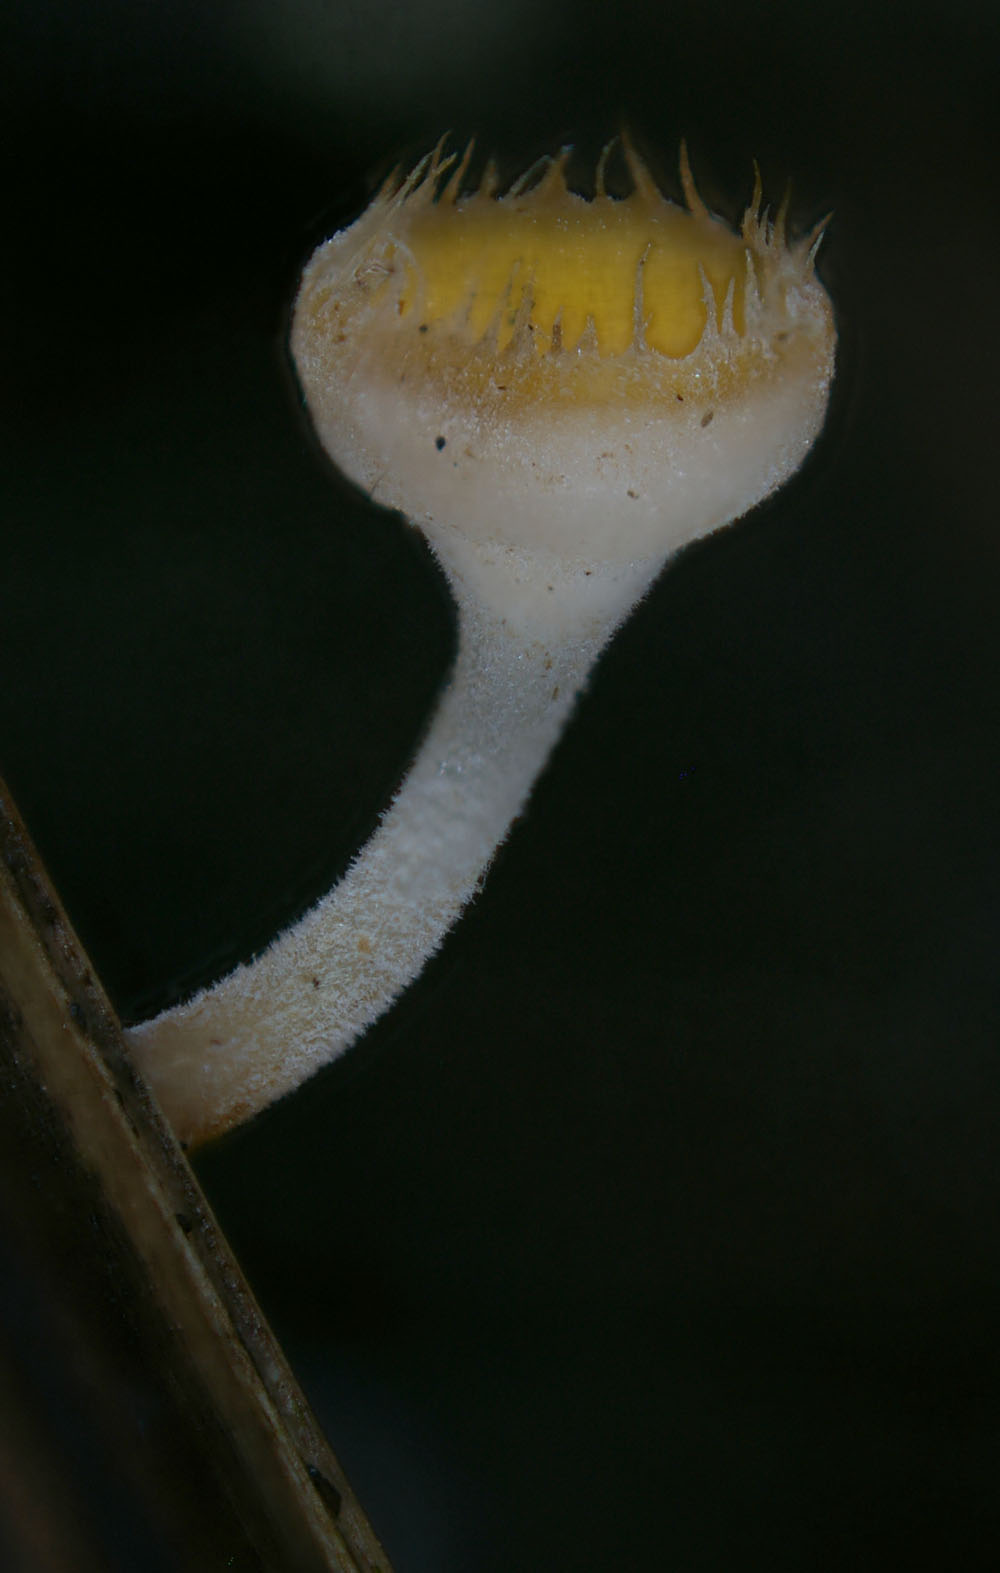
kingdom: Fungi
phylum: Ascomycota
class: Leotiomycetes
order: Helotiales
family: Helotiaceae
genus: Cyathicula
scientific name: Cyathicula coronata
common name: krone-stilkskive
